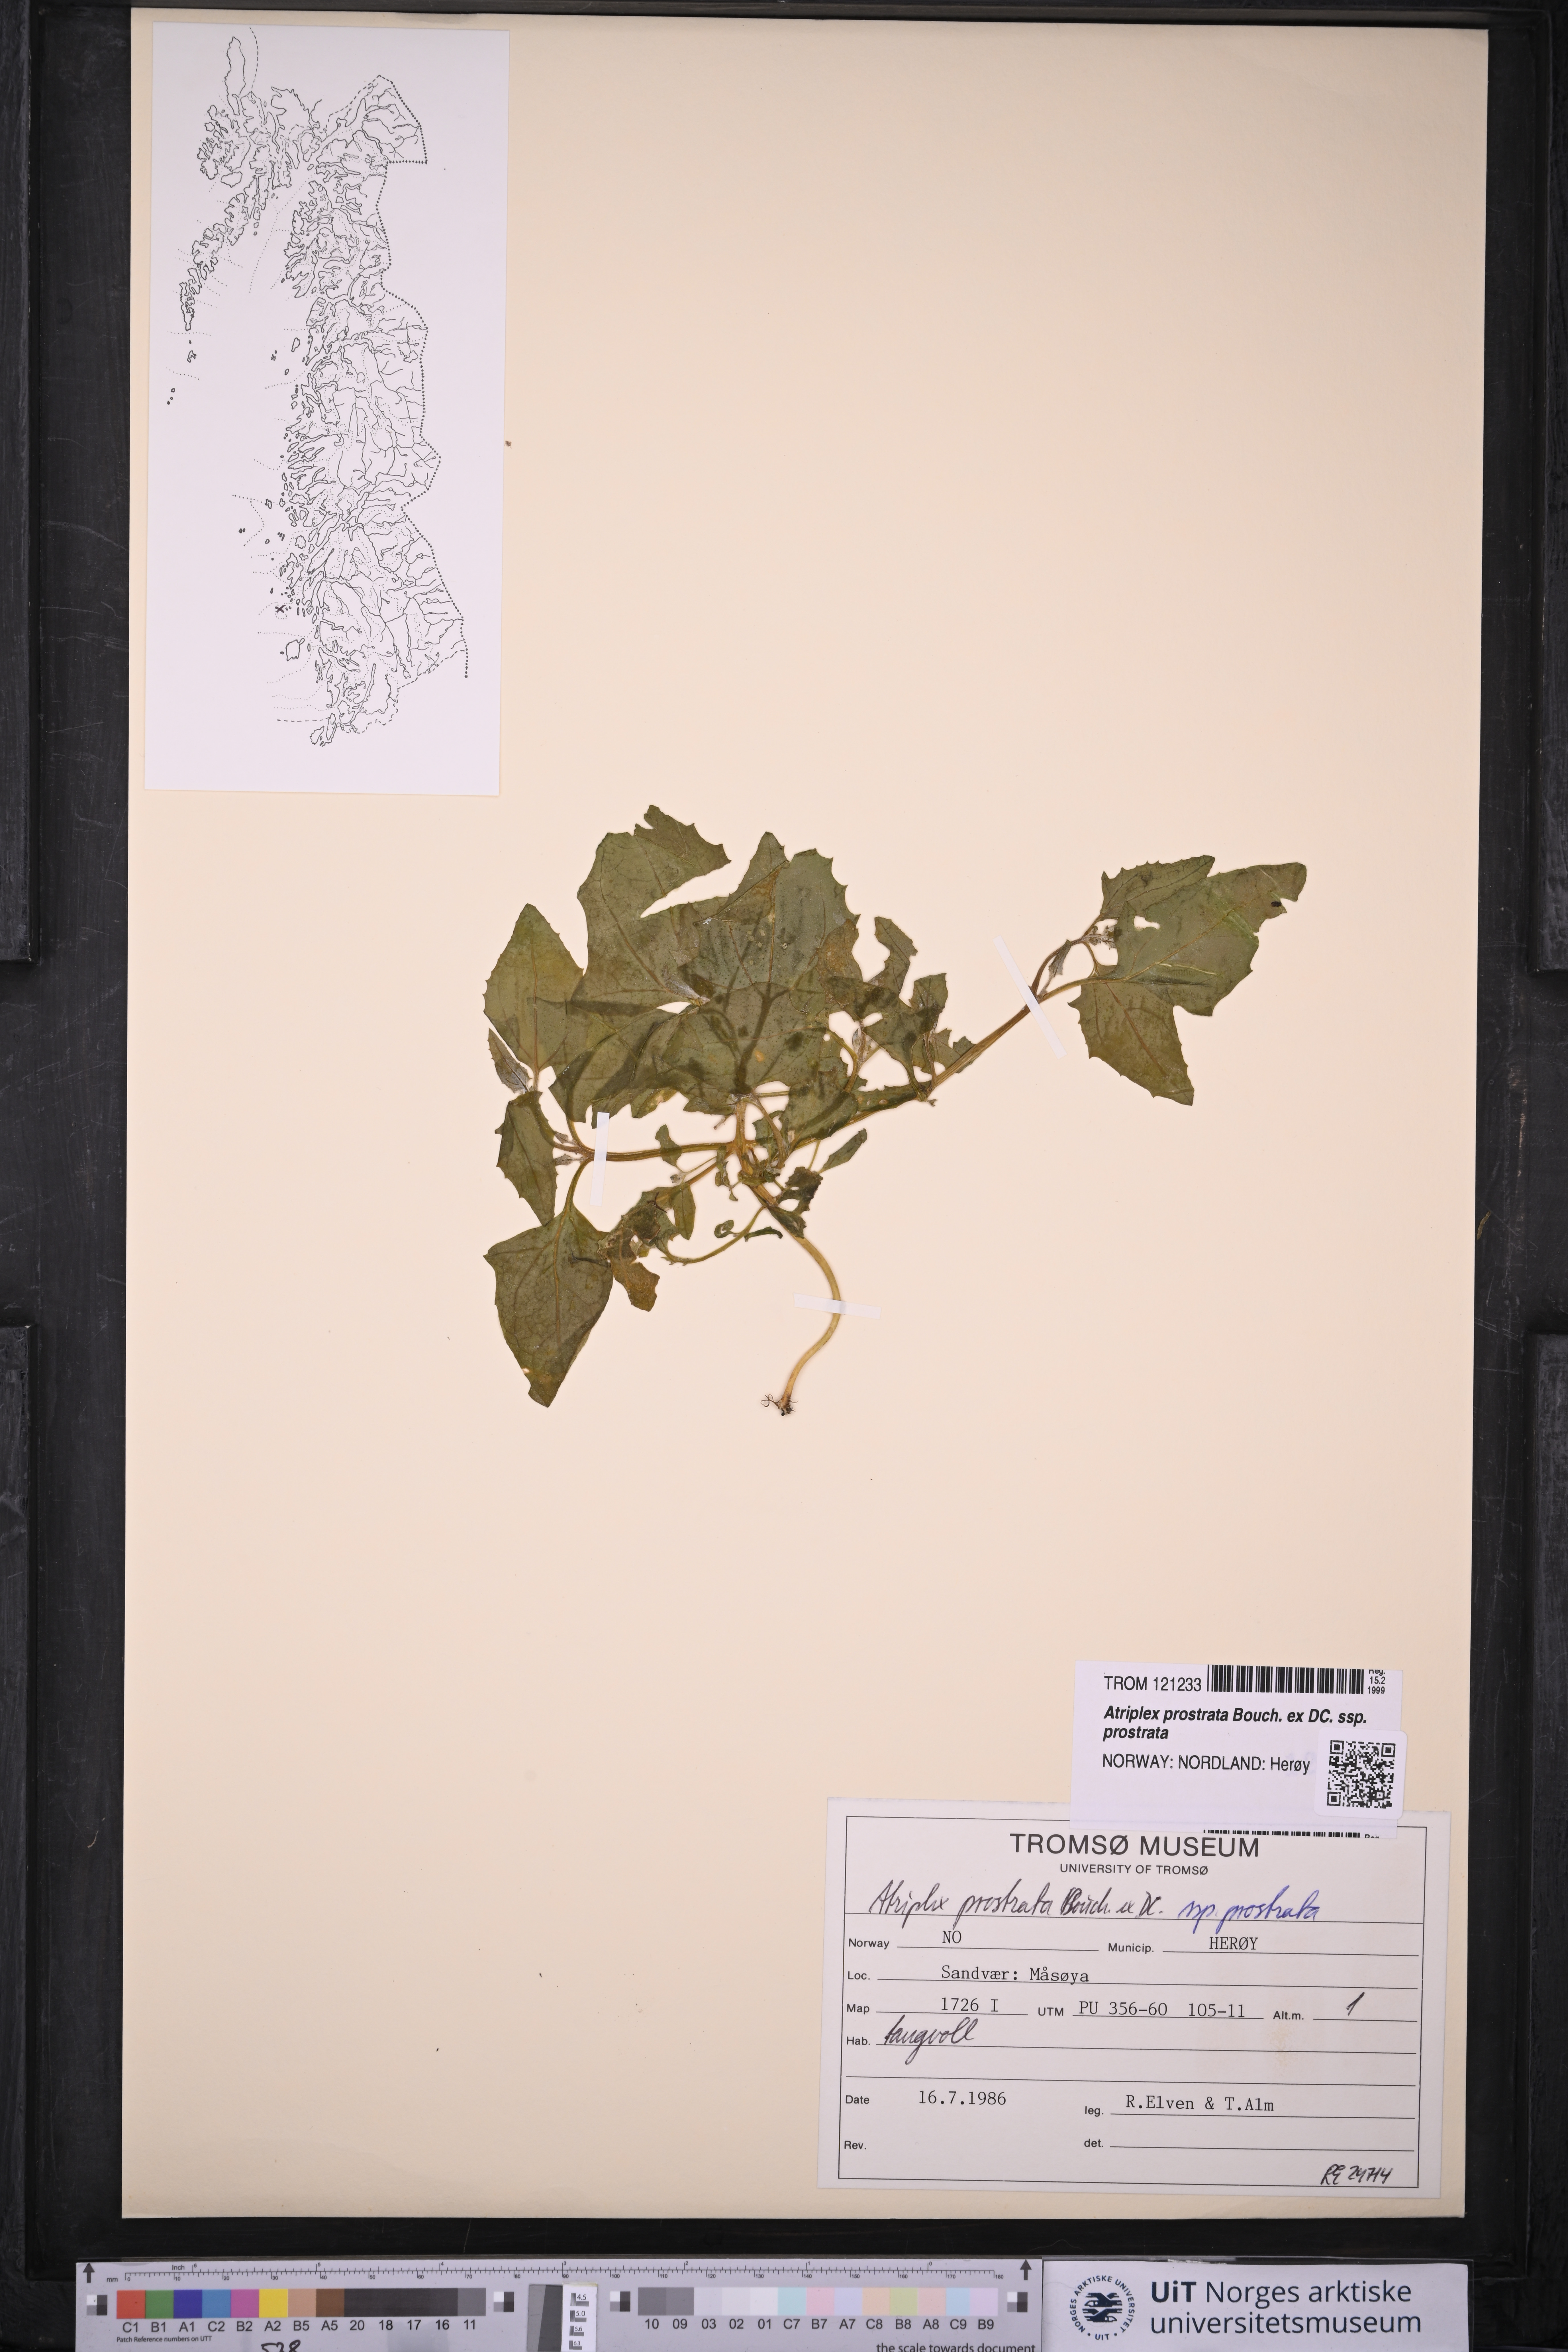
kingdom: Plantae
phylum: Tracheophyta
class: Magnoliopsida
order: Caryophyllales
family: Amaranthaceae
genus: Atriplex
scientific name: Atriplex prostrata
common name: Spear-leaved orache
